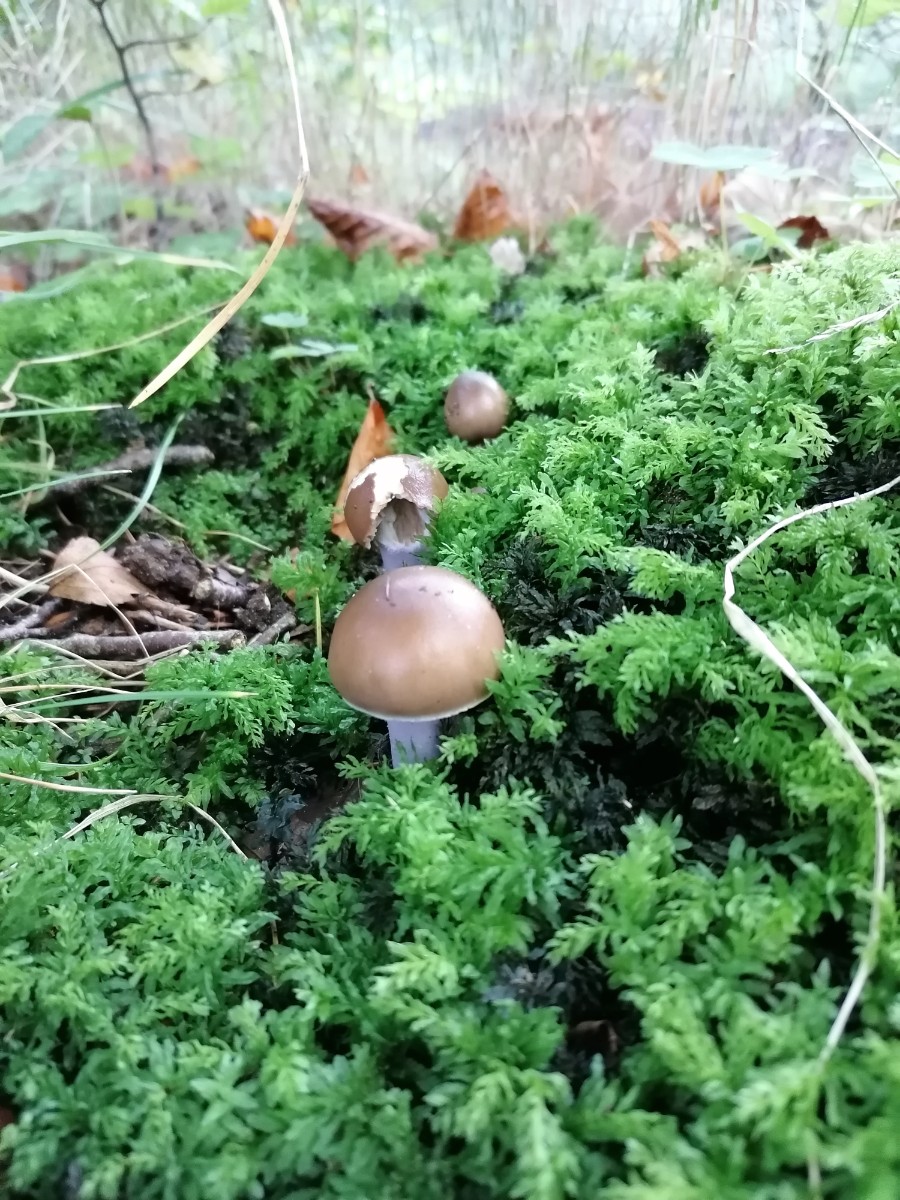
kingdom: Fungi
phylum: Basidiomycota
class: Agaricomycetes
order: Agaricales
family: Cortinariaceae
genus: Cortinarius
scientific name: Cortinarius elatior
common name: høj slørhat
